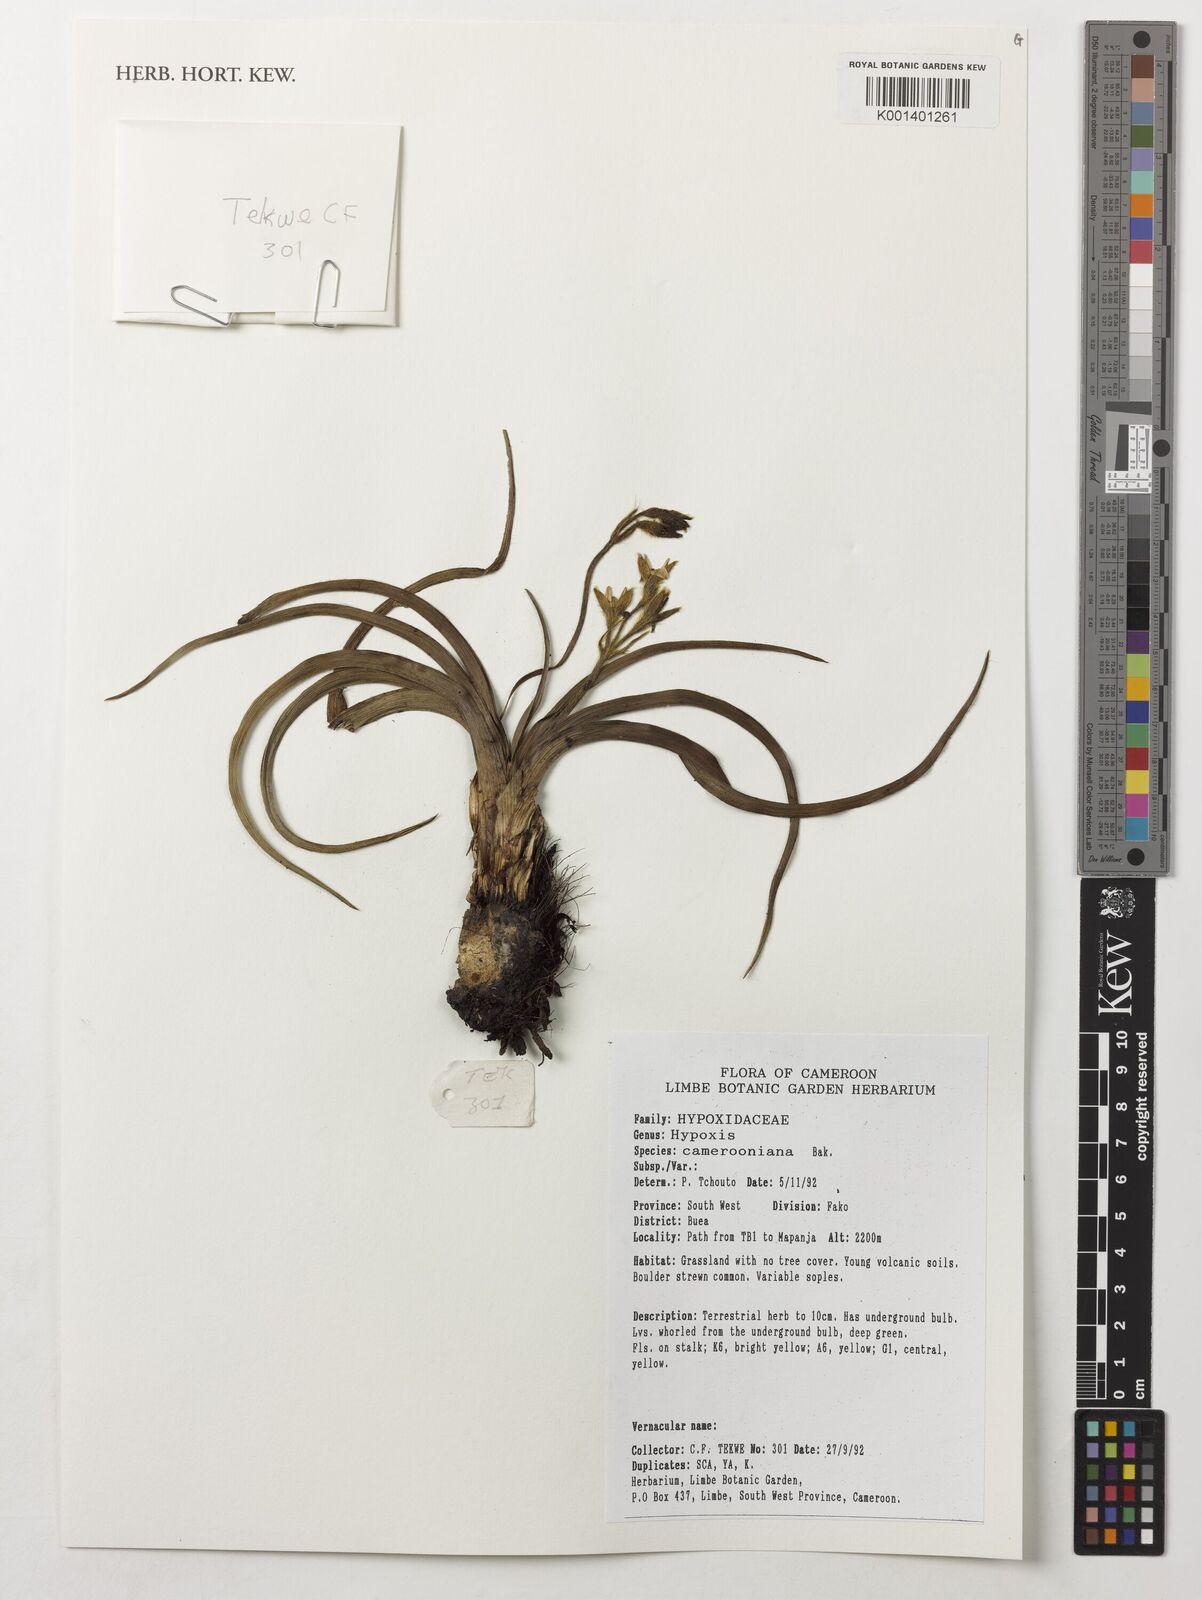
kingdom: Plantae
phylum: Tracheophyta
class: Liliopsida
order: Asparagales
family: Hypoxidaceae
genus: Hypoxis
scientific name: Hypoxis camerooniana
